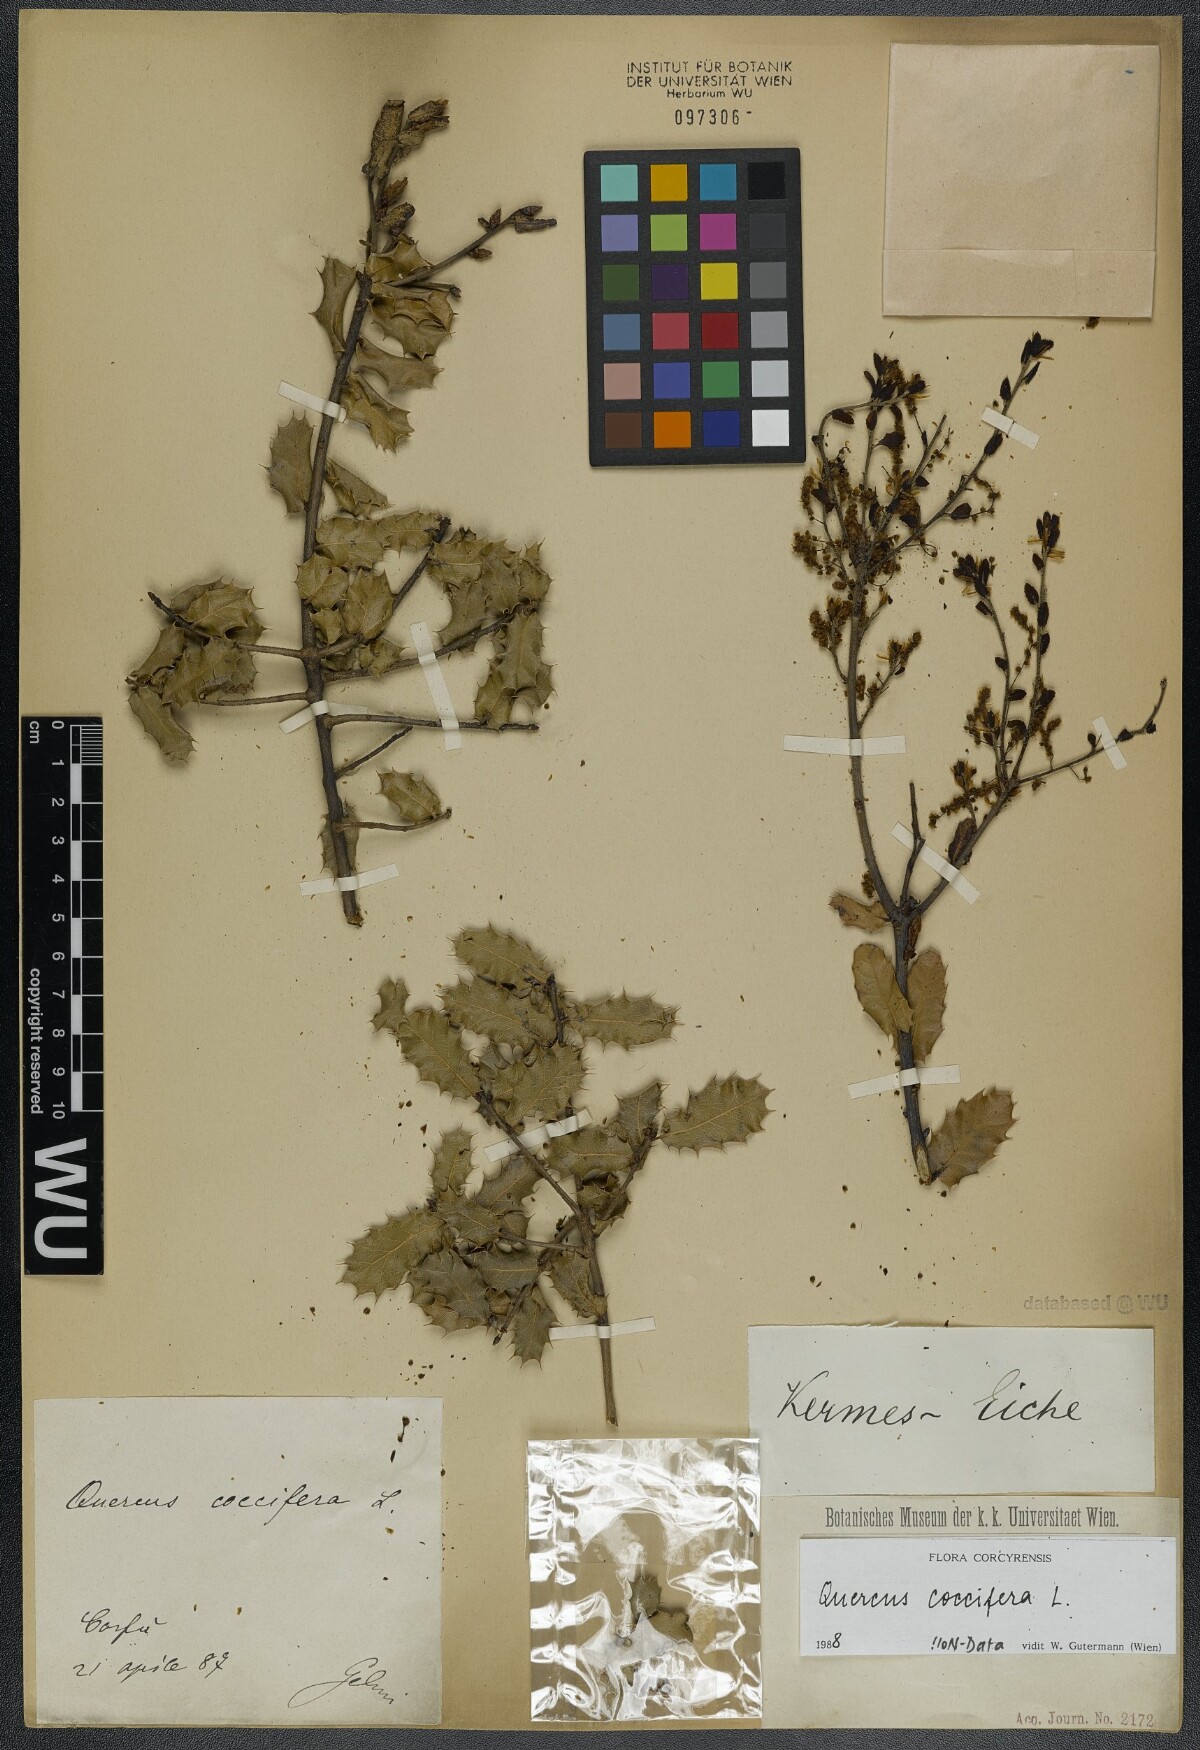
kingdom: Plantae
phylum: Tracheophyta
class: Magnoliopsida
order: Fagales
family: Fagaceae
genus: Quercus
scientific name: Quercus coccifera
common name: Kermes oak
